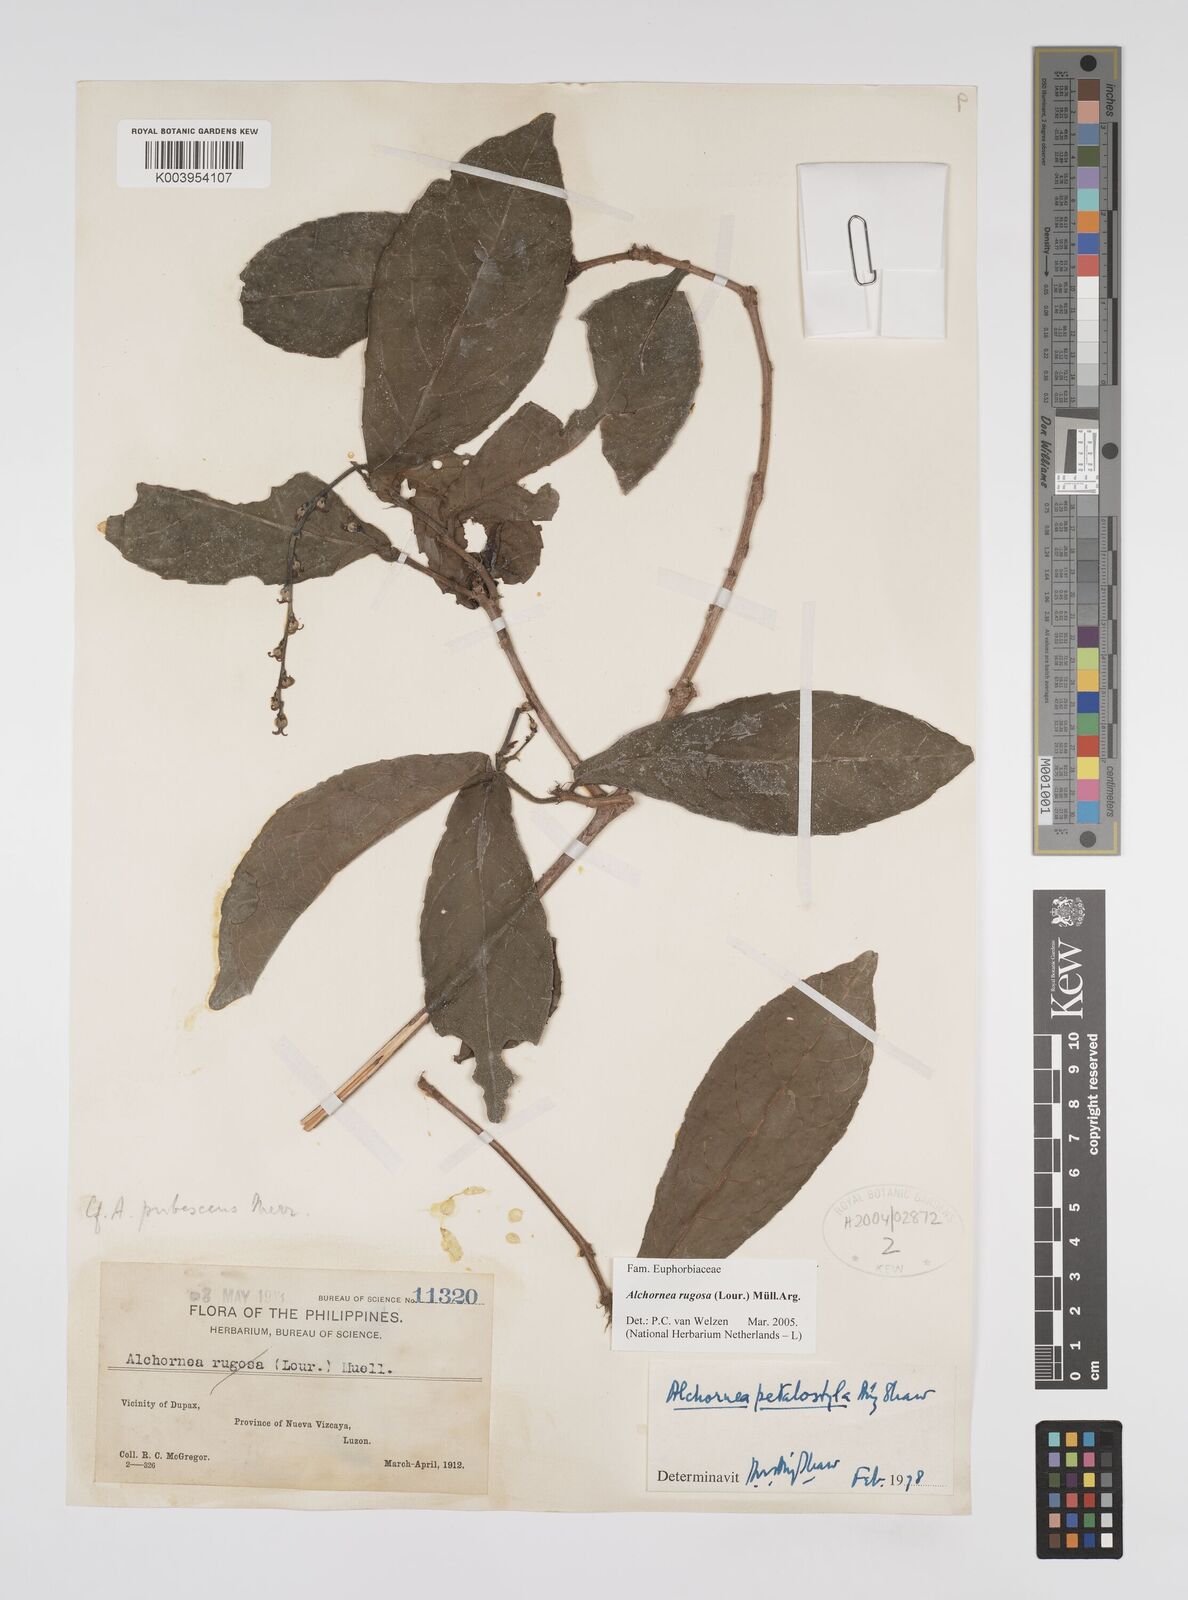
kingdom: Plantae
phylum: Tracheophyta
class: Magnoliopsida
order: Malpighiales
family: Euphorbiaceae
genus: Alchornea
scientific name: Alchornea rugosa
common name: Alchorntree
